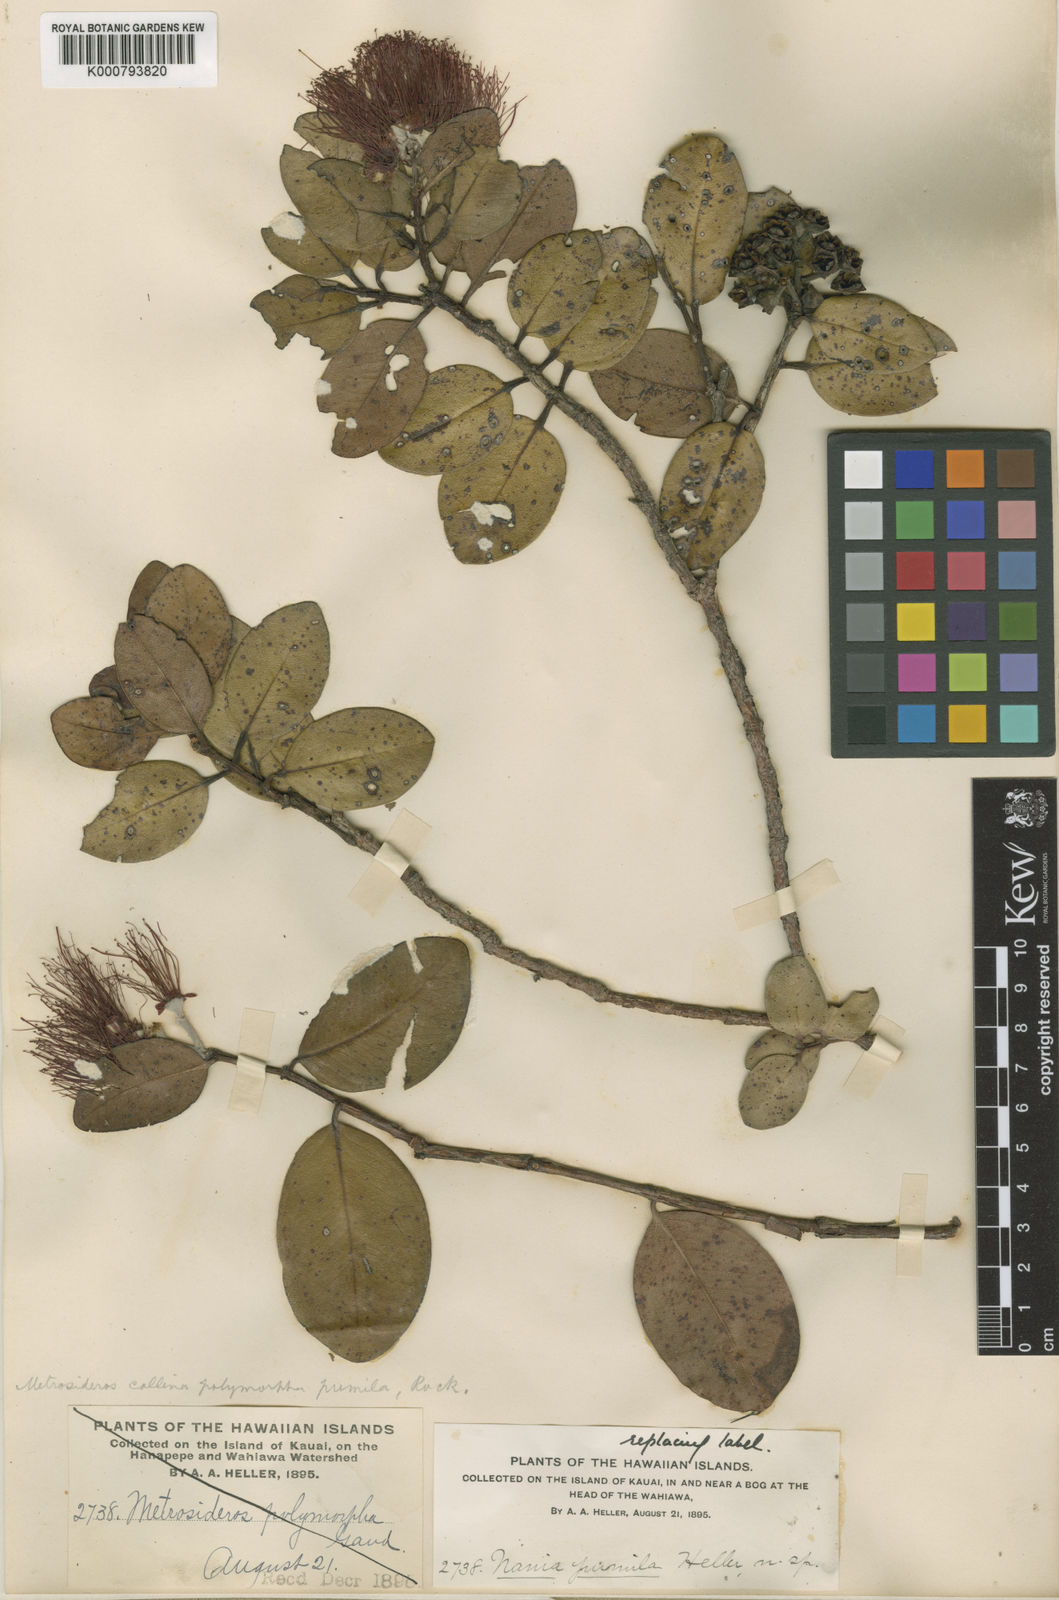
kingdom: Plantae
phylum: Tracheophyta
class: Magnoliopsida
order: Myrtales
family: Myrtaceae
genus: Metrosideros
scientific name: Metrosideros polymorpha
